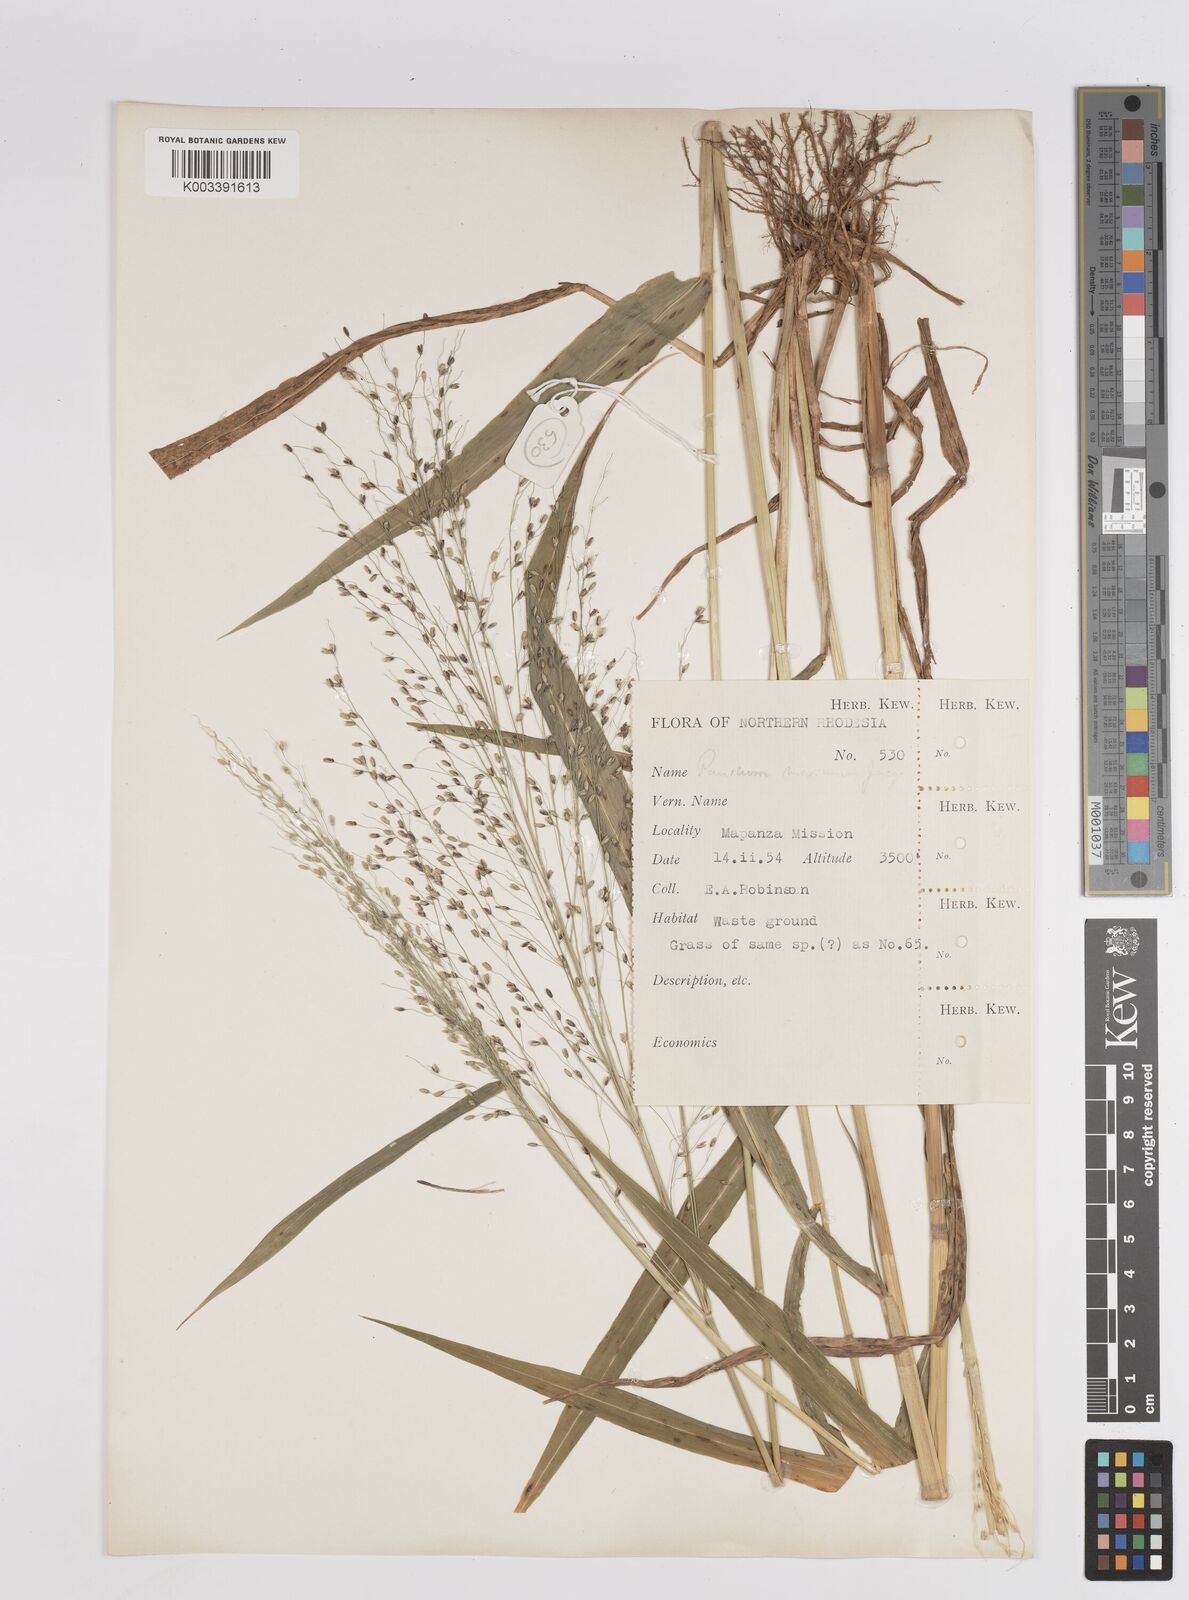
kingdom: Plantae
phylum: Tracheophyta
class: Liliopsida
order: Poales
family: Poaceae
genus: Megathyrsus
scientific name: Megathyrsus maximus
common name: Guineagrass
